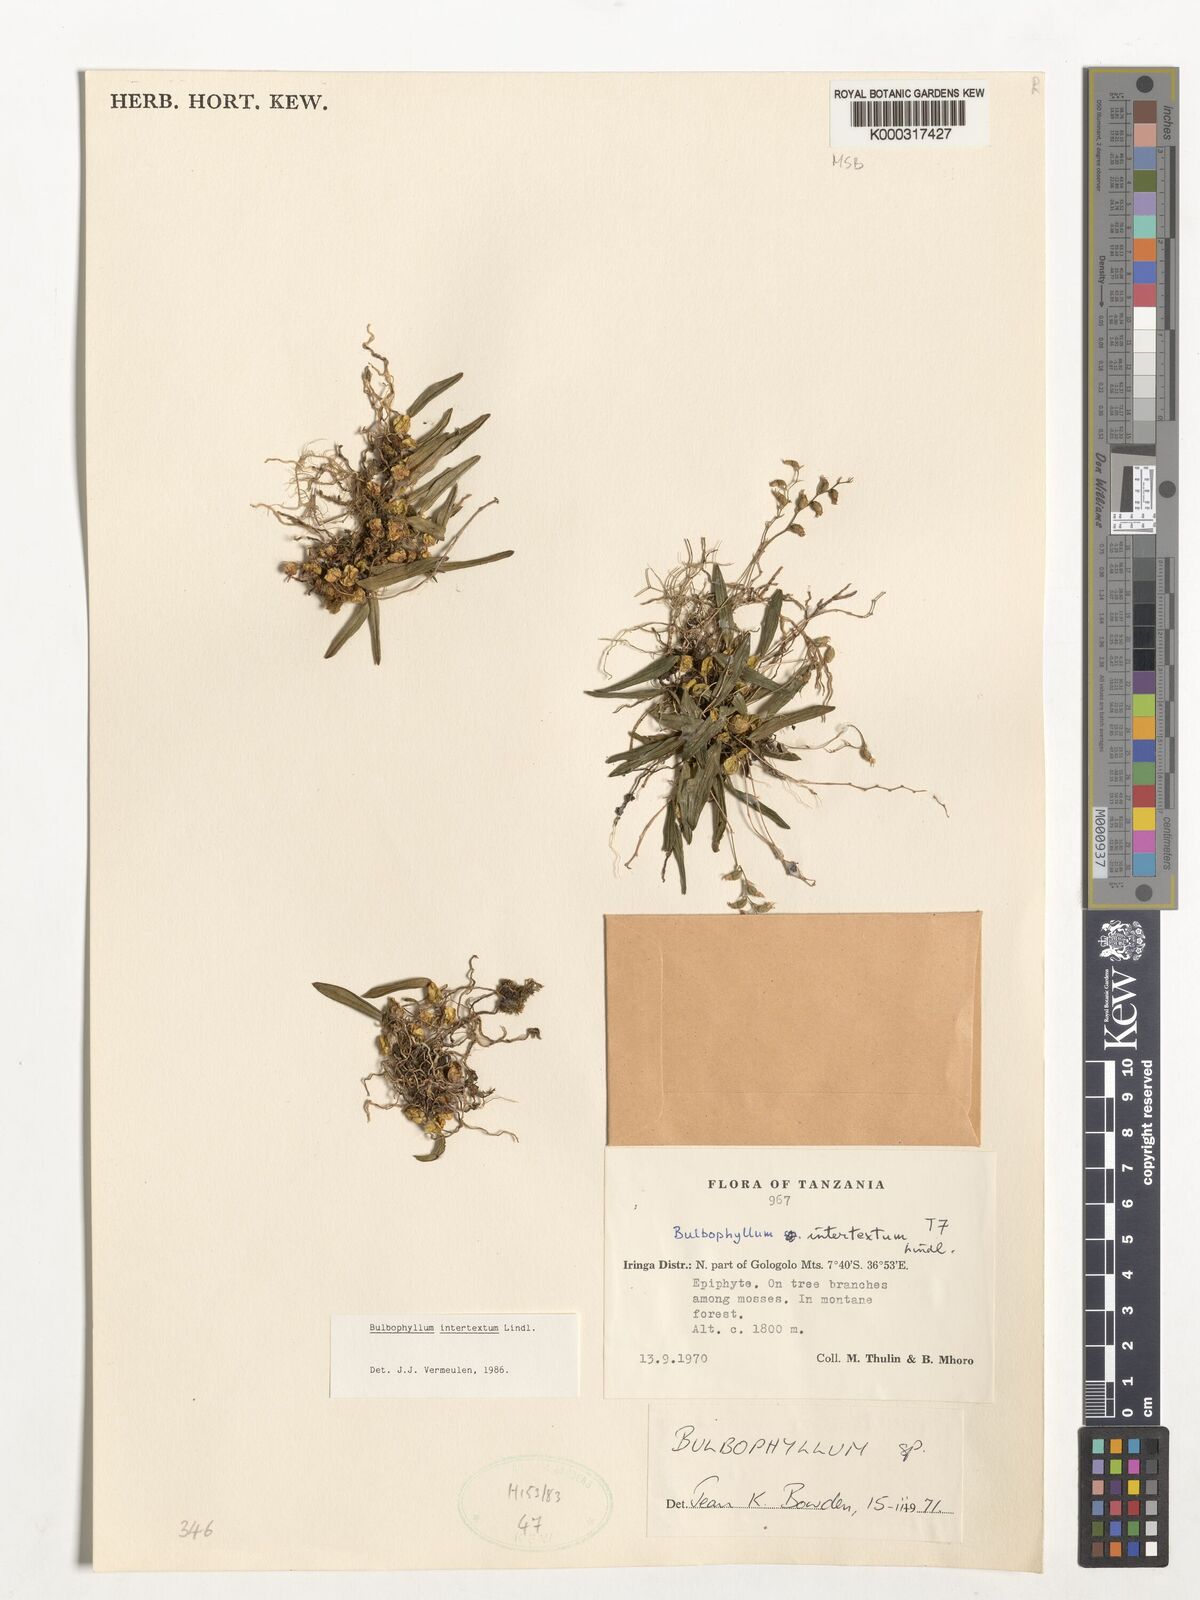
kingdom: Plantae
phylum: Tracheophyta
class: Liliopsida
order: Asparagales
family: Orchidaceae
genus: Bulbophyllum
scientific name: Bulbophyllum intertextum
